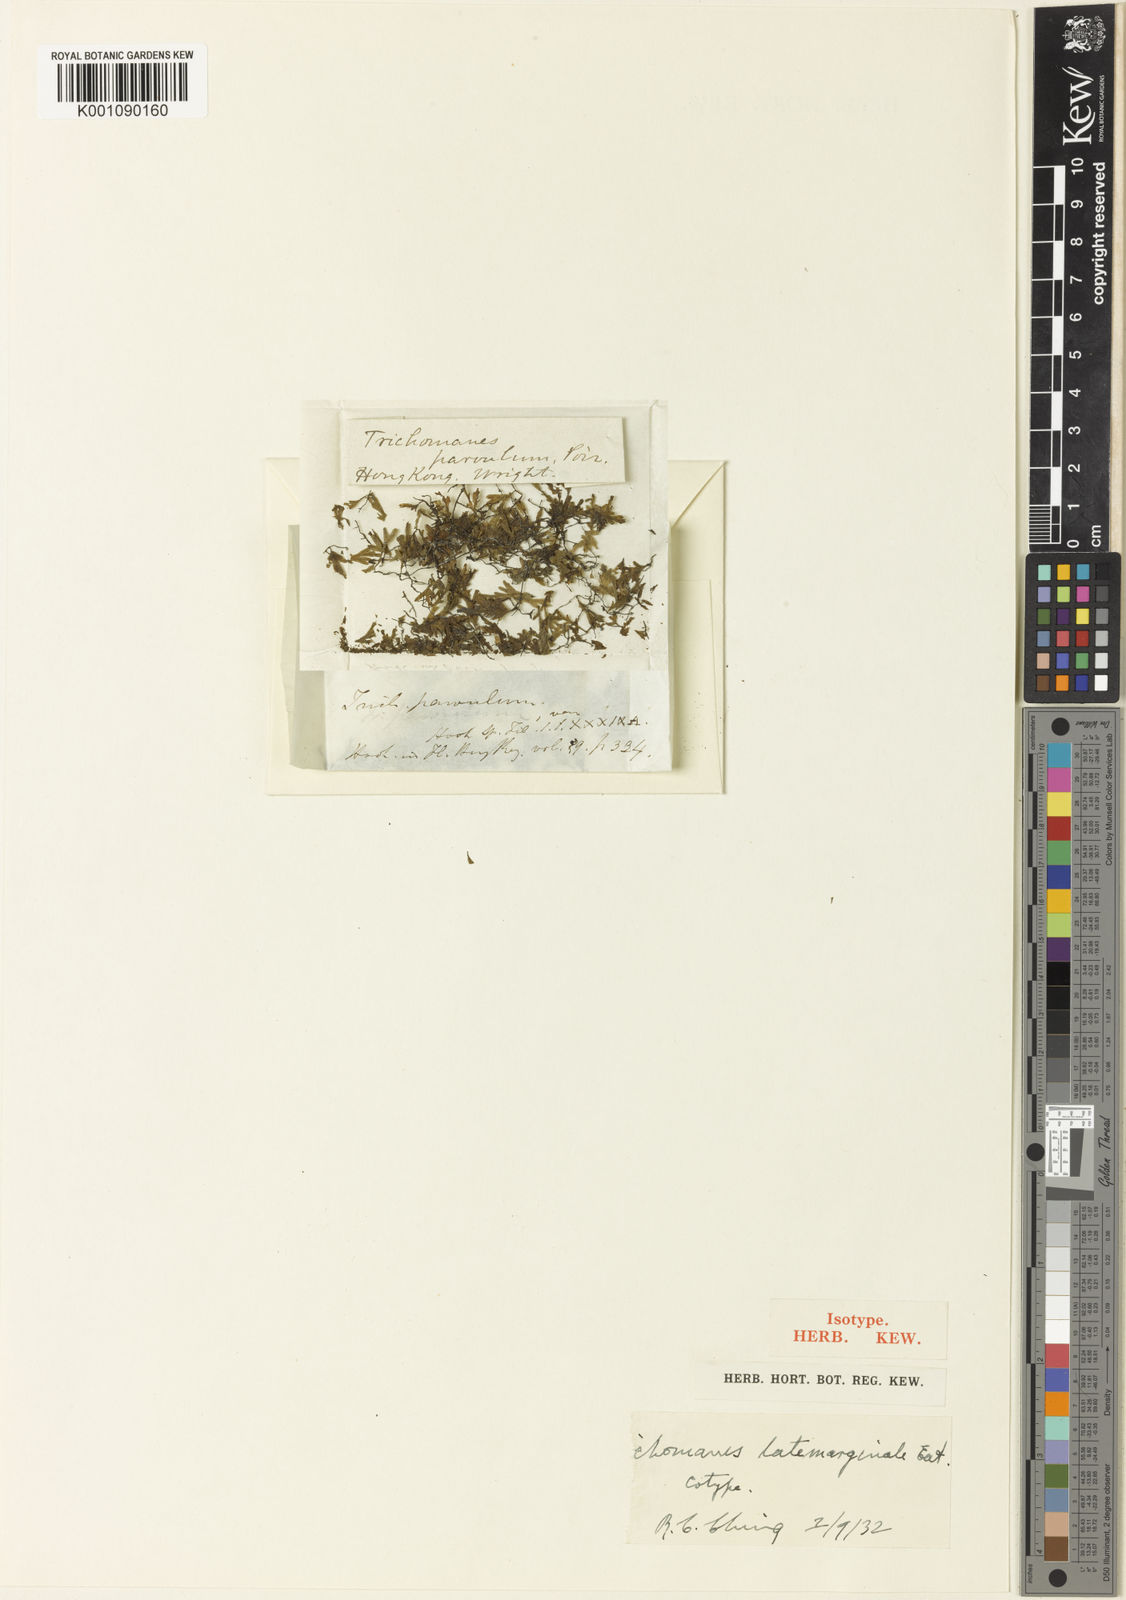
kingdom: Plantae
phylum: Tracheophyta
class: Polypodiopsida
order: Hymenophyllales
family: Hymenophyllaceae
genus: Crepidomanes
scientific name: Crepidomanes latemarginale
